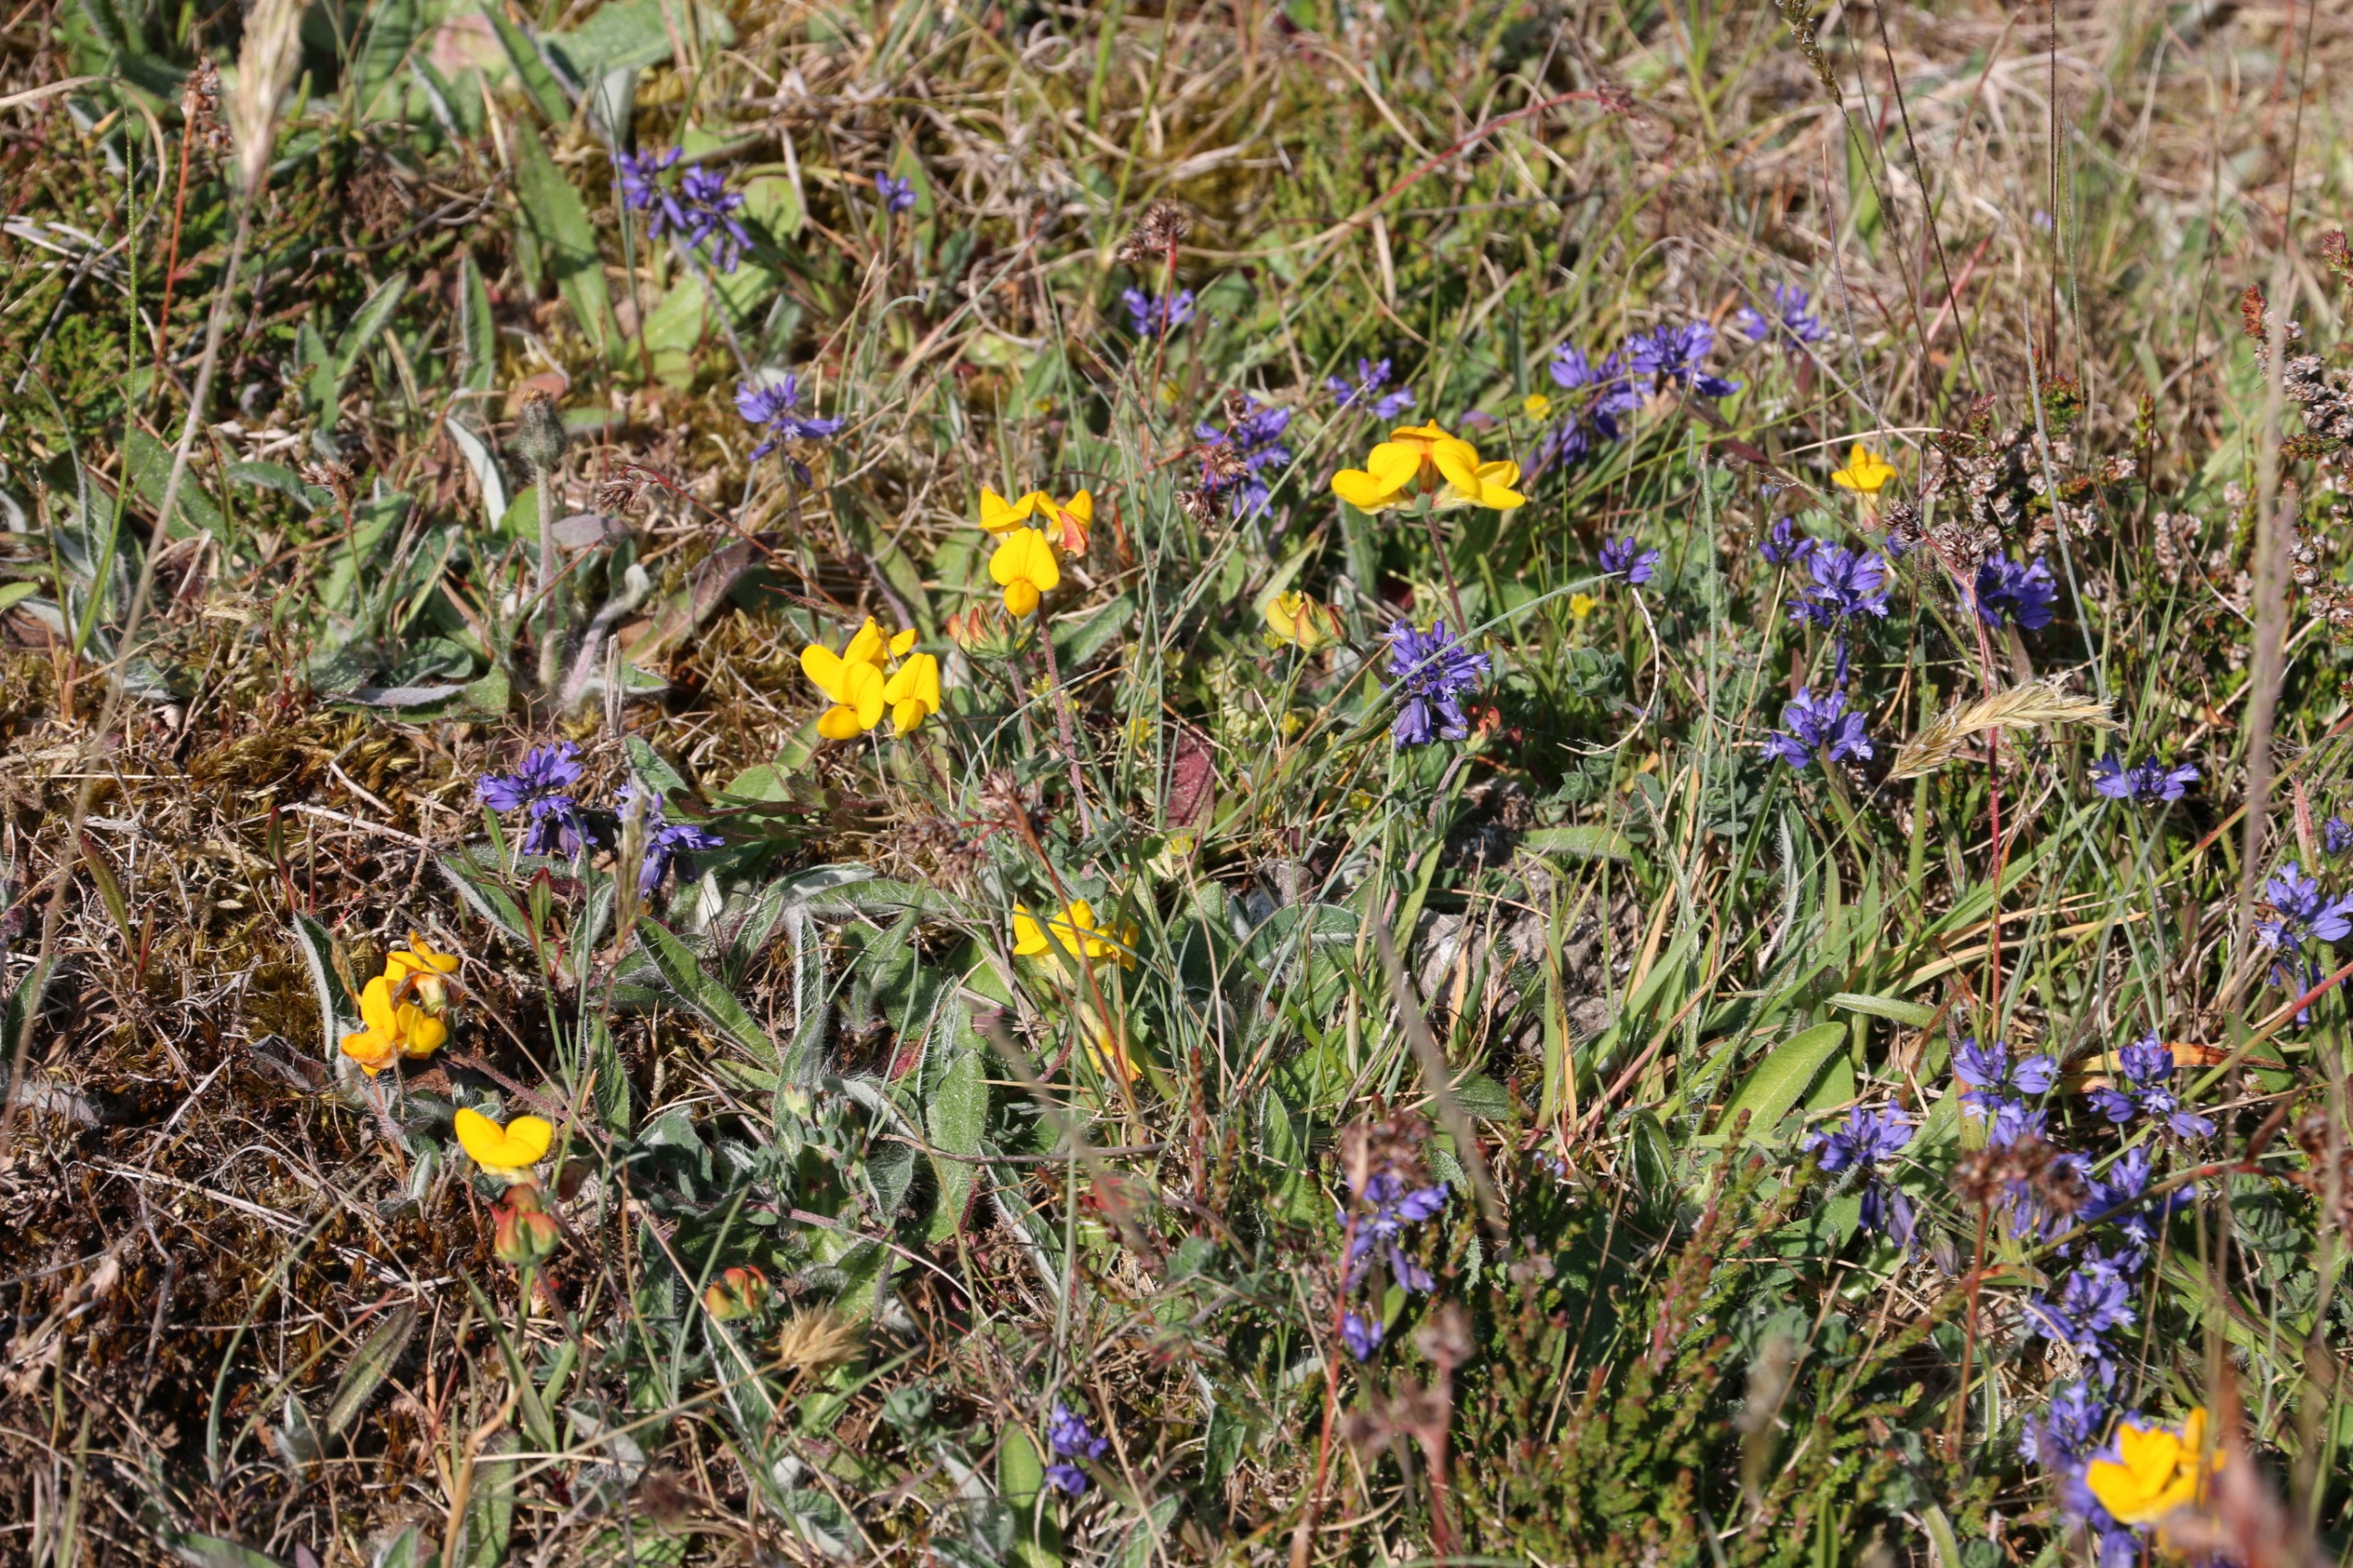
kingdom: Plantae
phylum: Tracheophyta
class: Magnoliopsida
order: Fabales
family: Fabaceae
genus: Lotus
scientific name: Lotus corniculatus
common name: Almindelig kællingetand
